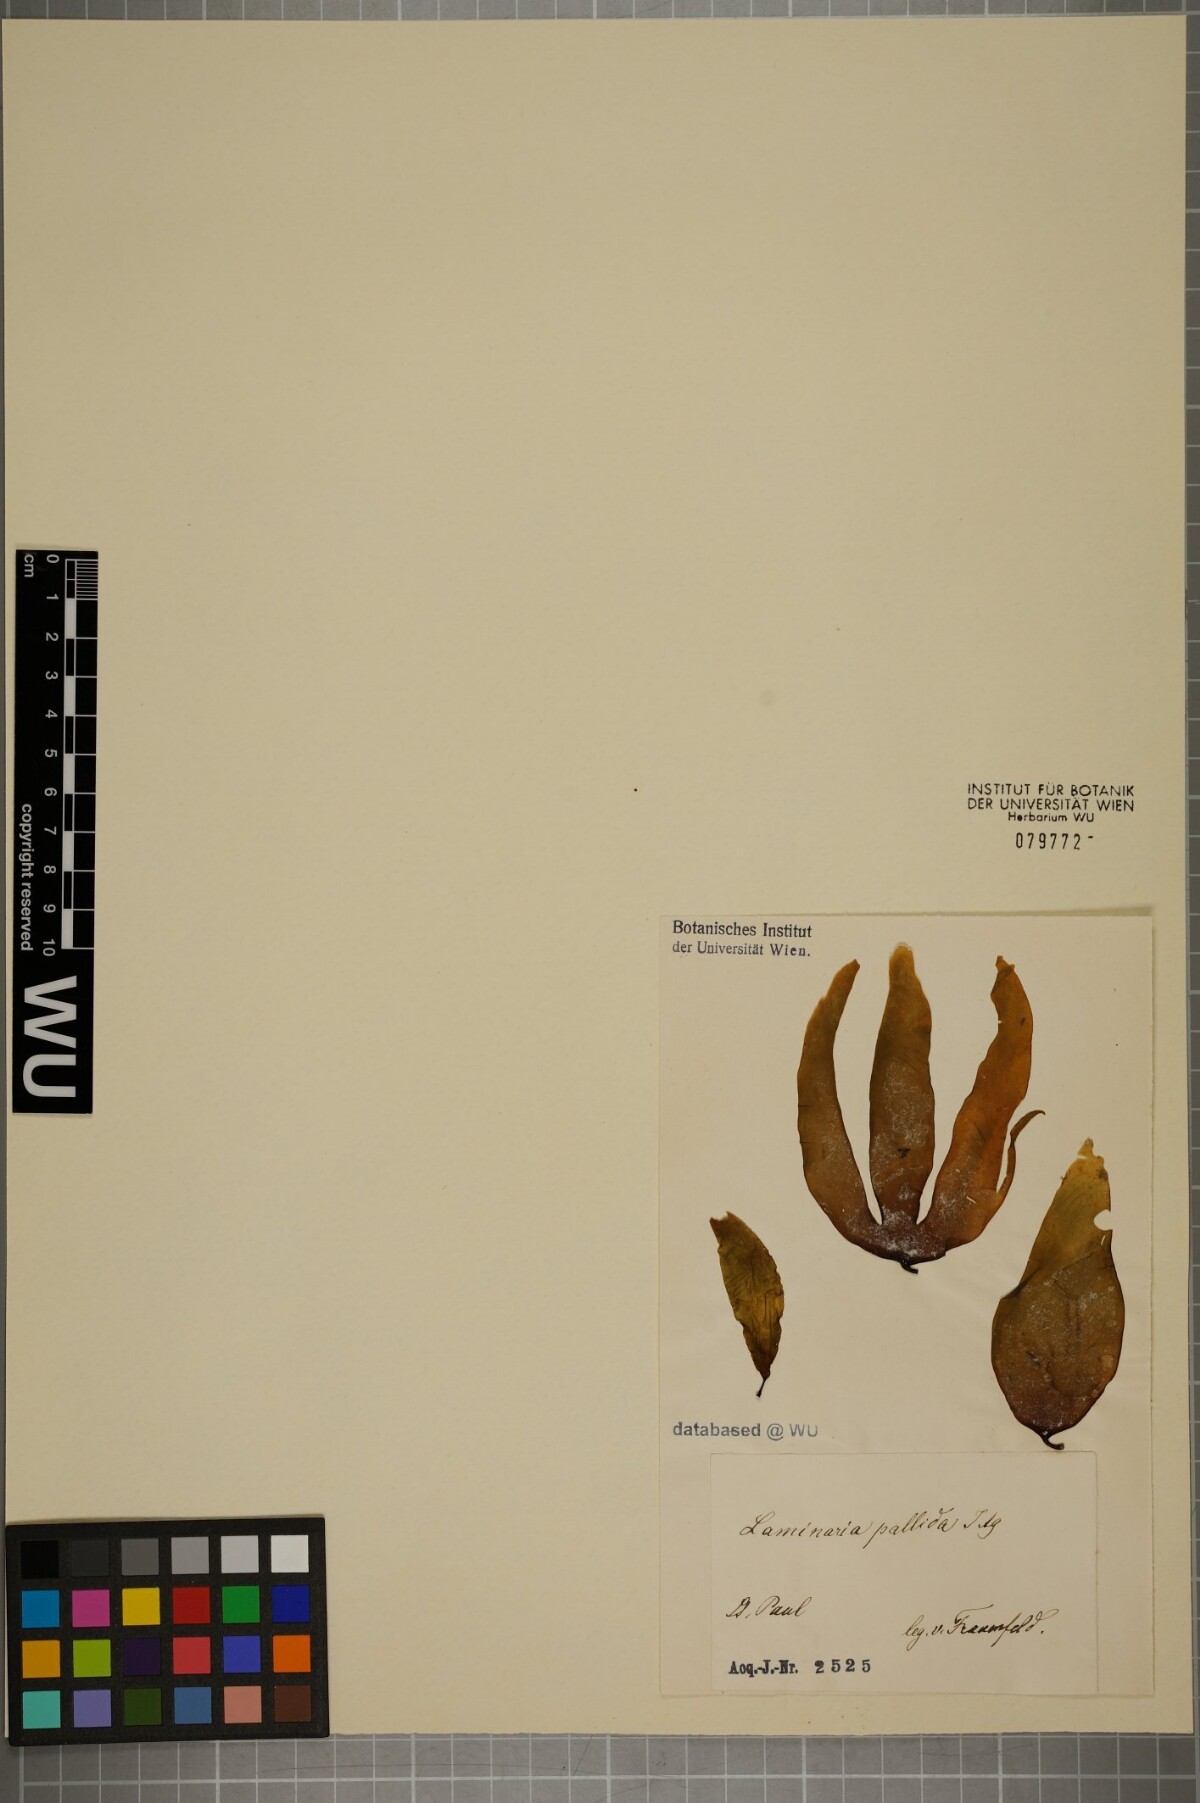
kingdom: Chromista
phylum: Ochrophyta
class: Phaeophyceae
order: Laminariales
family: Laminariaceae
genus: Laminaria
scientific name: Laminaria pallida
